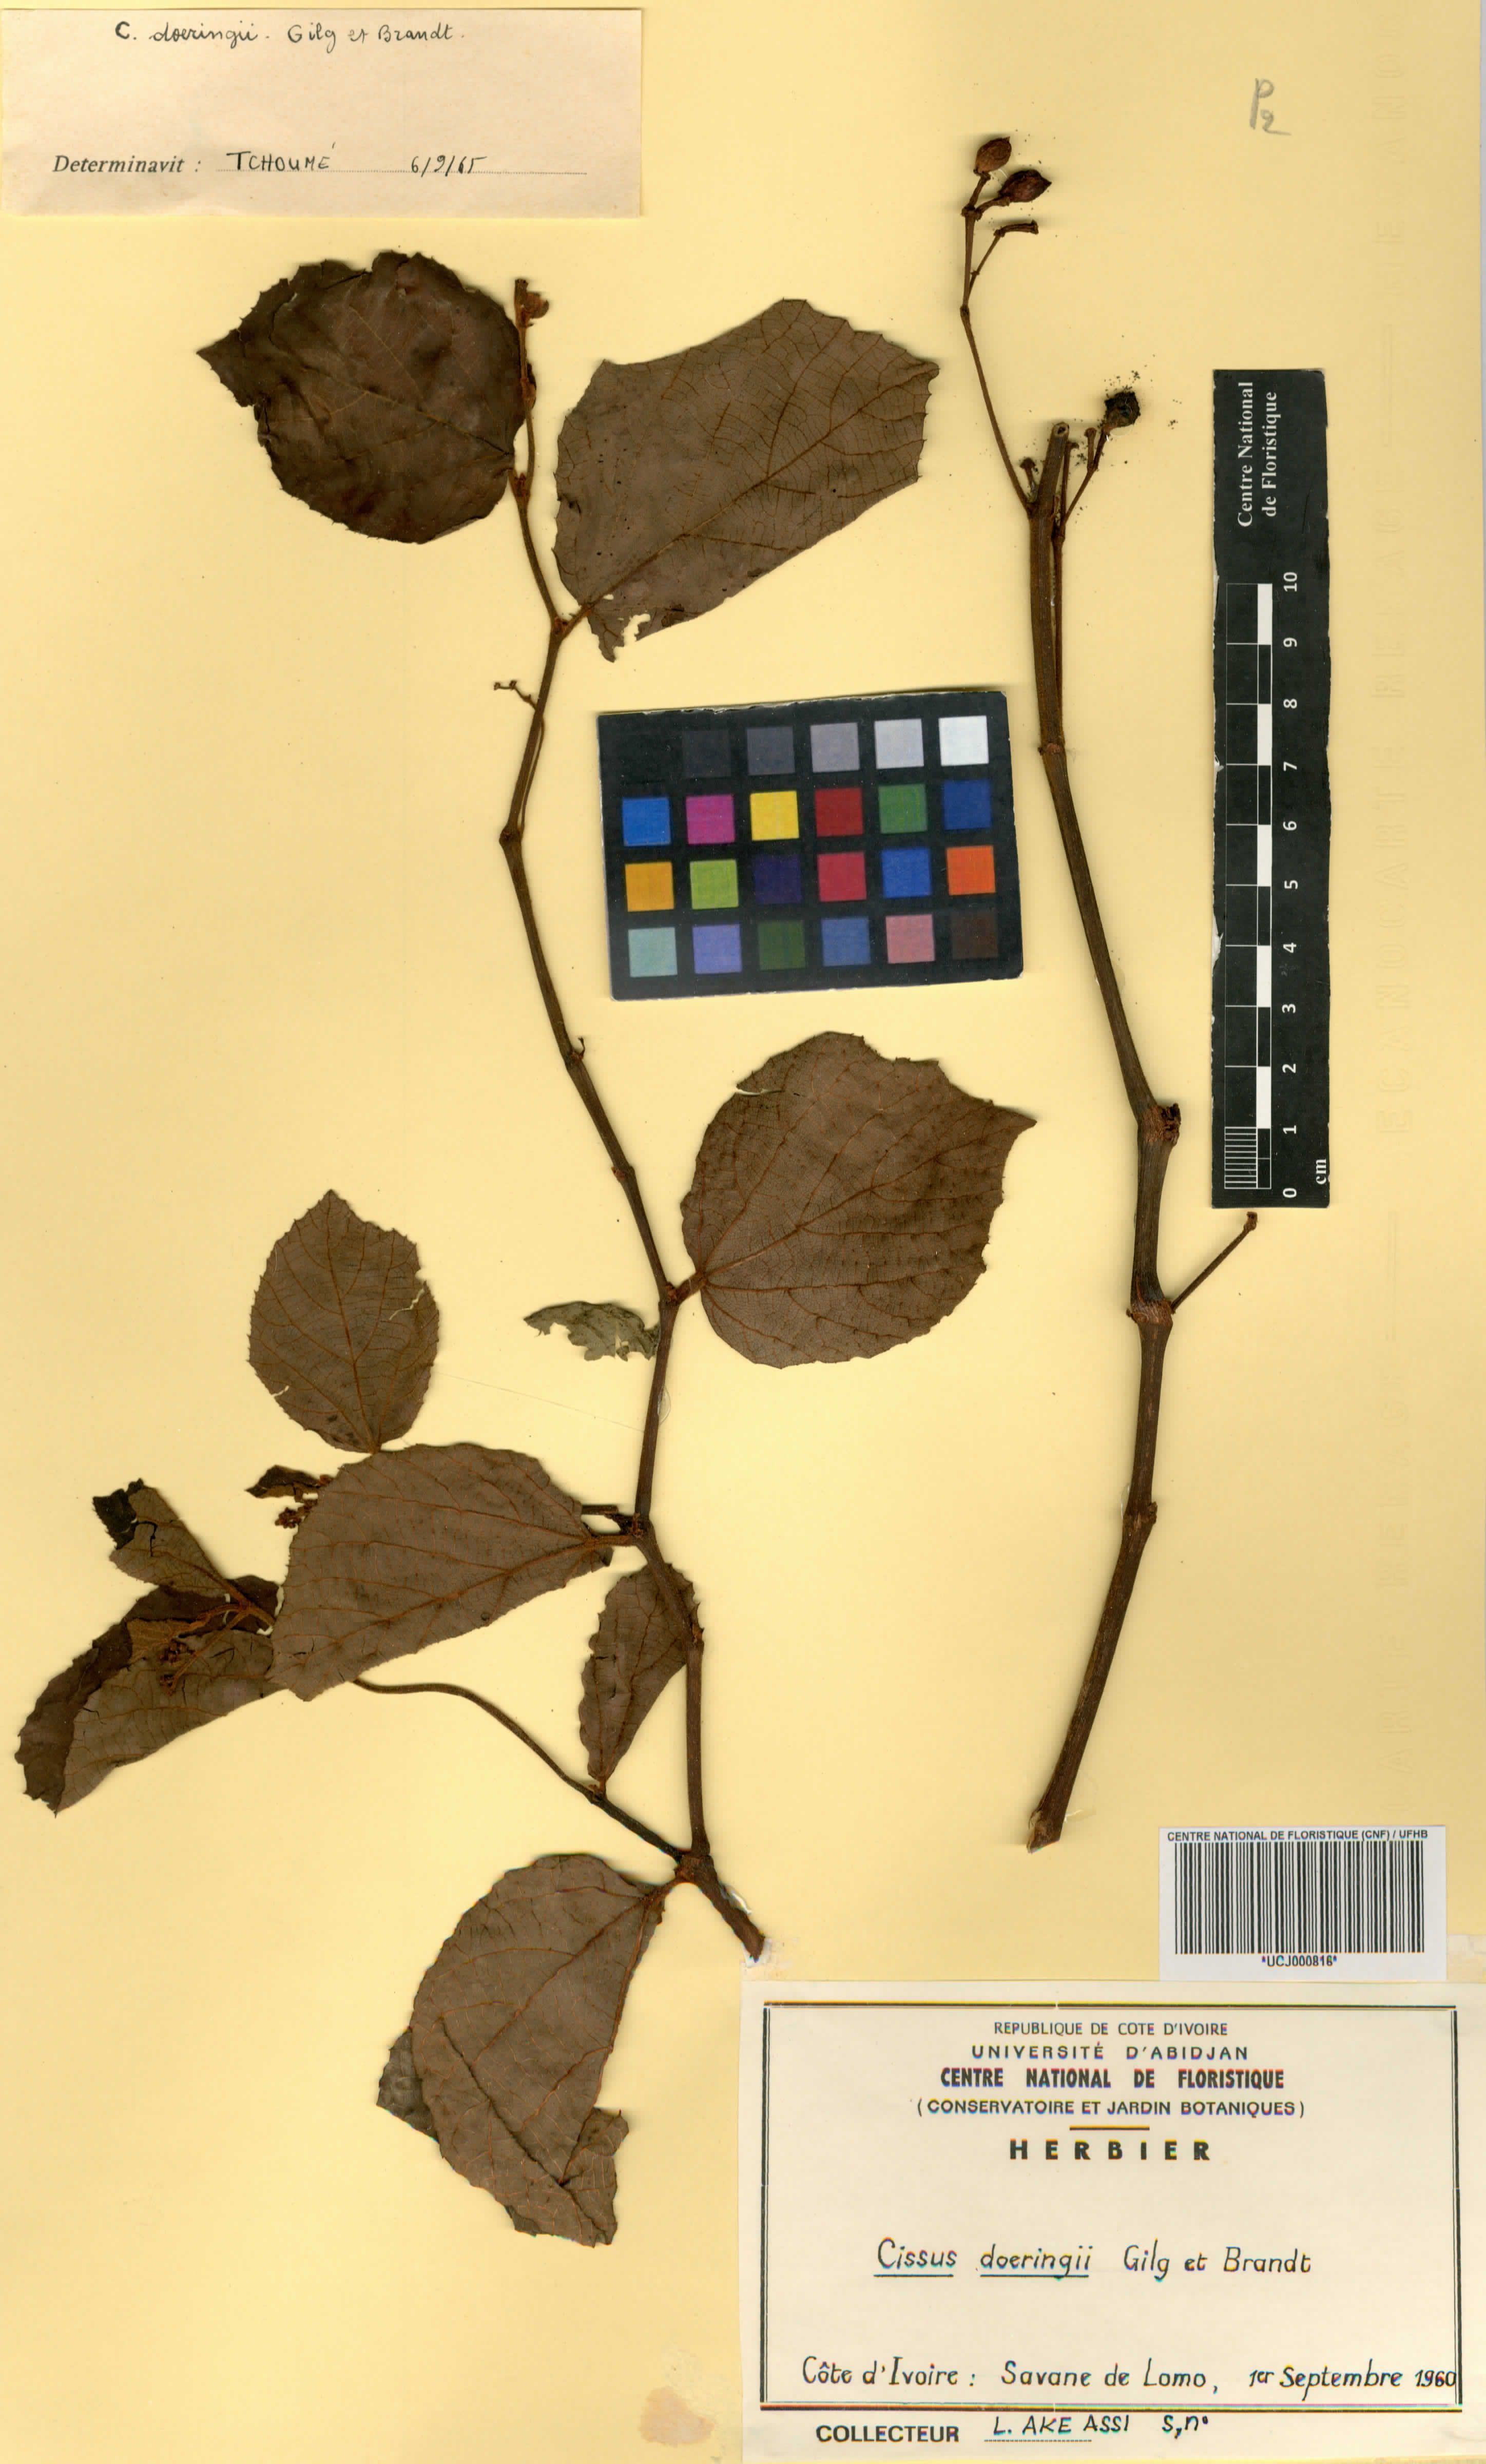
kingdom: Plantae
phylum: Tracheophyta
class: Magnoliopsida
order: Vitales
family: Vitaceae
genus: Cyphostemma
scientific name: Cyphostemma flavicans
